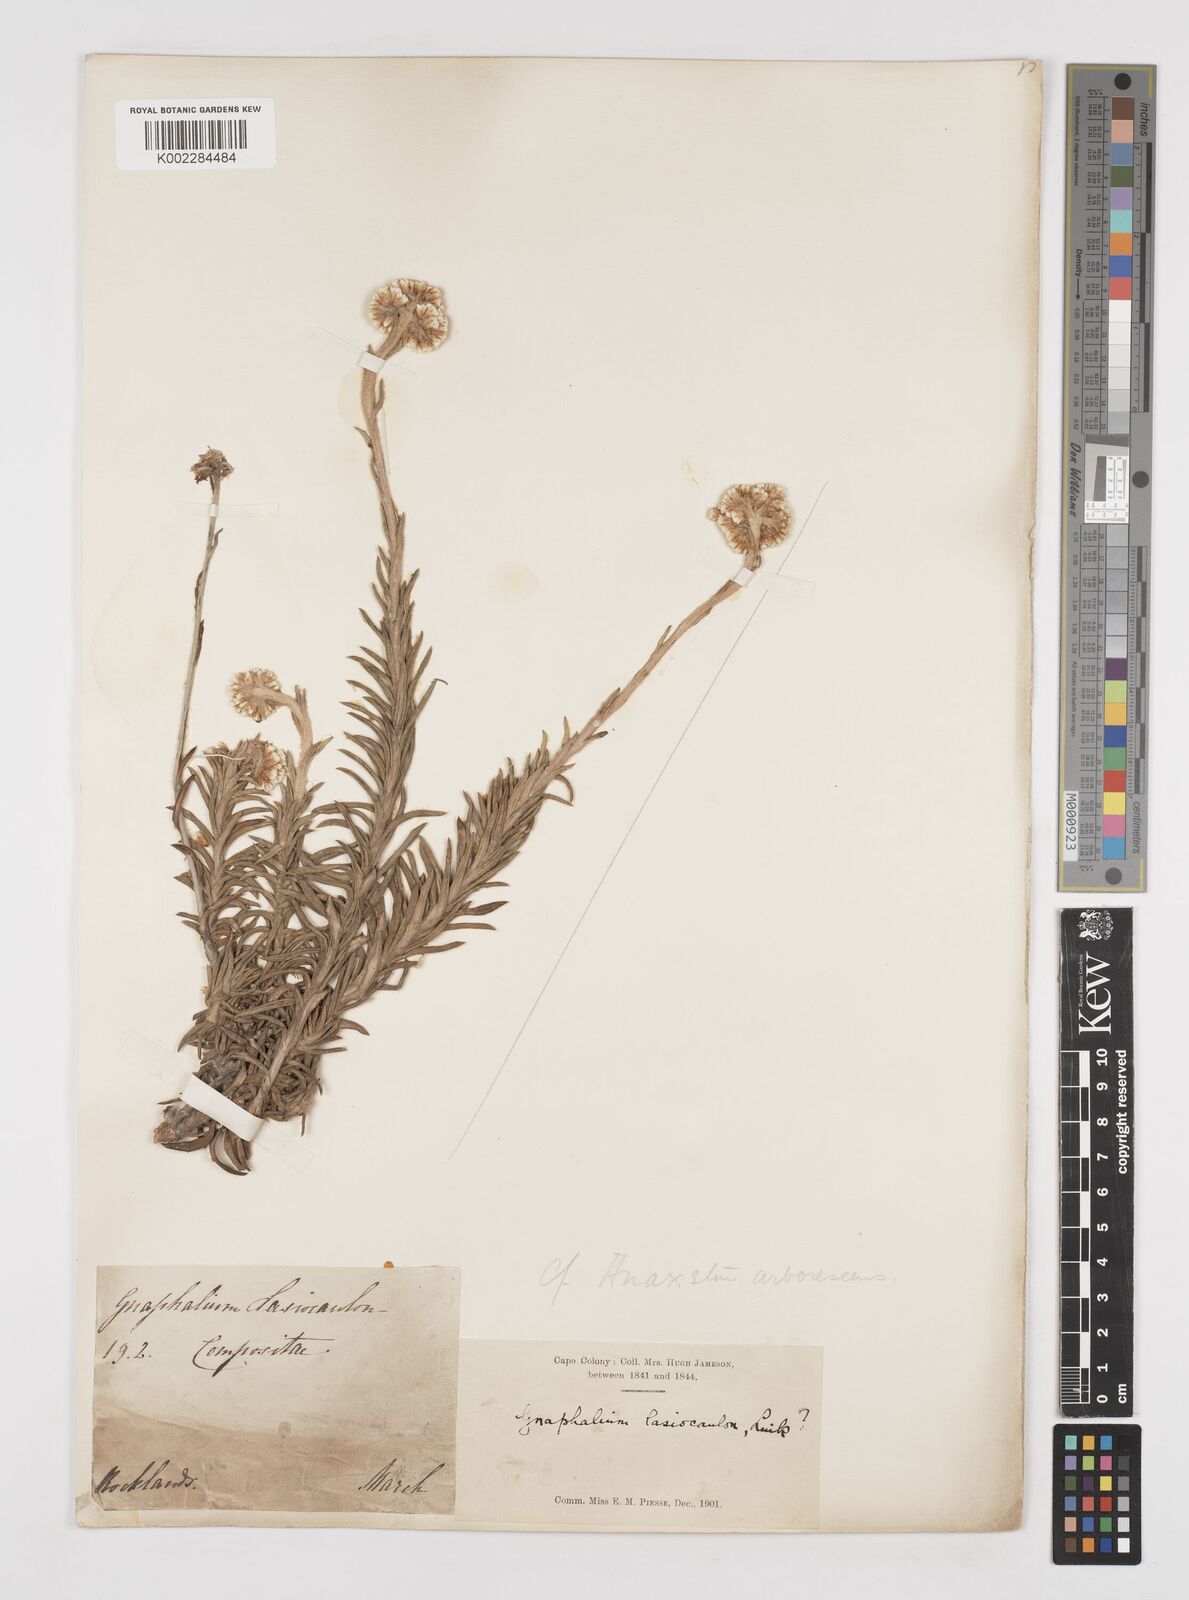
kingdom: Plantae
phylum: Tracheophyta
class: Magnoliopsida
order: Asterales
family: Asteraceae
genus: Anaxeton
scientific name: Anaxeton arborescens
